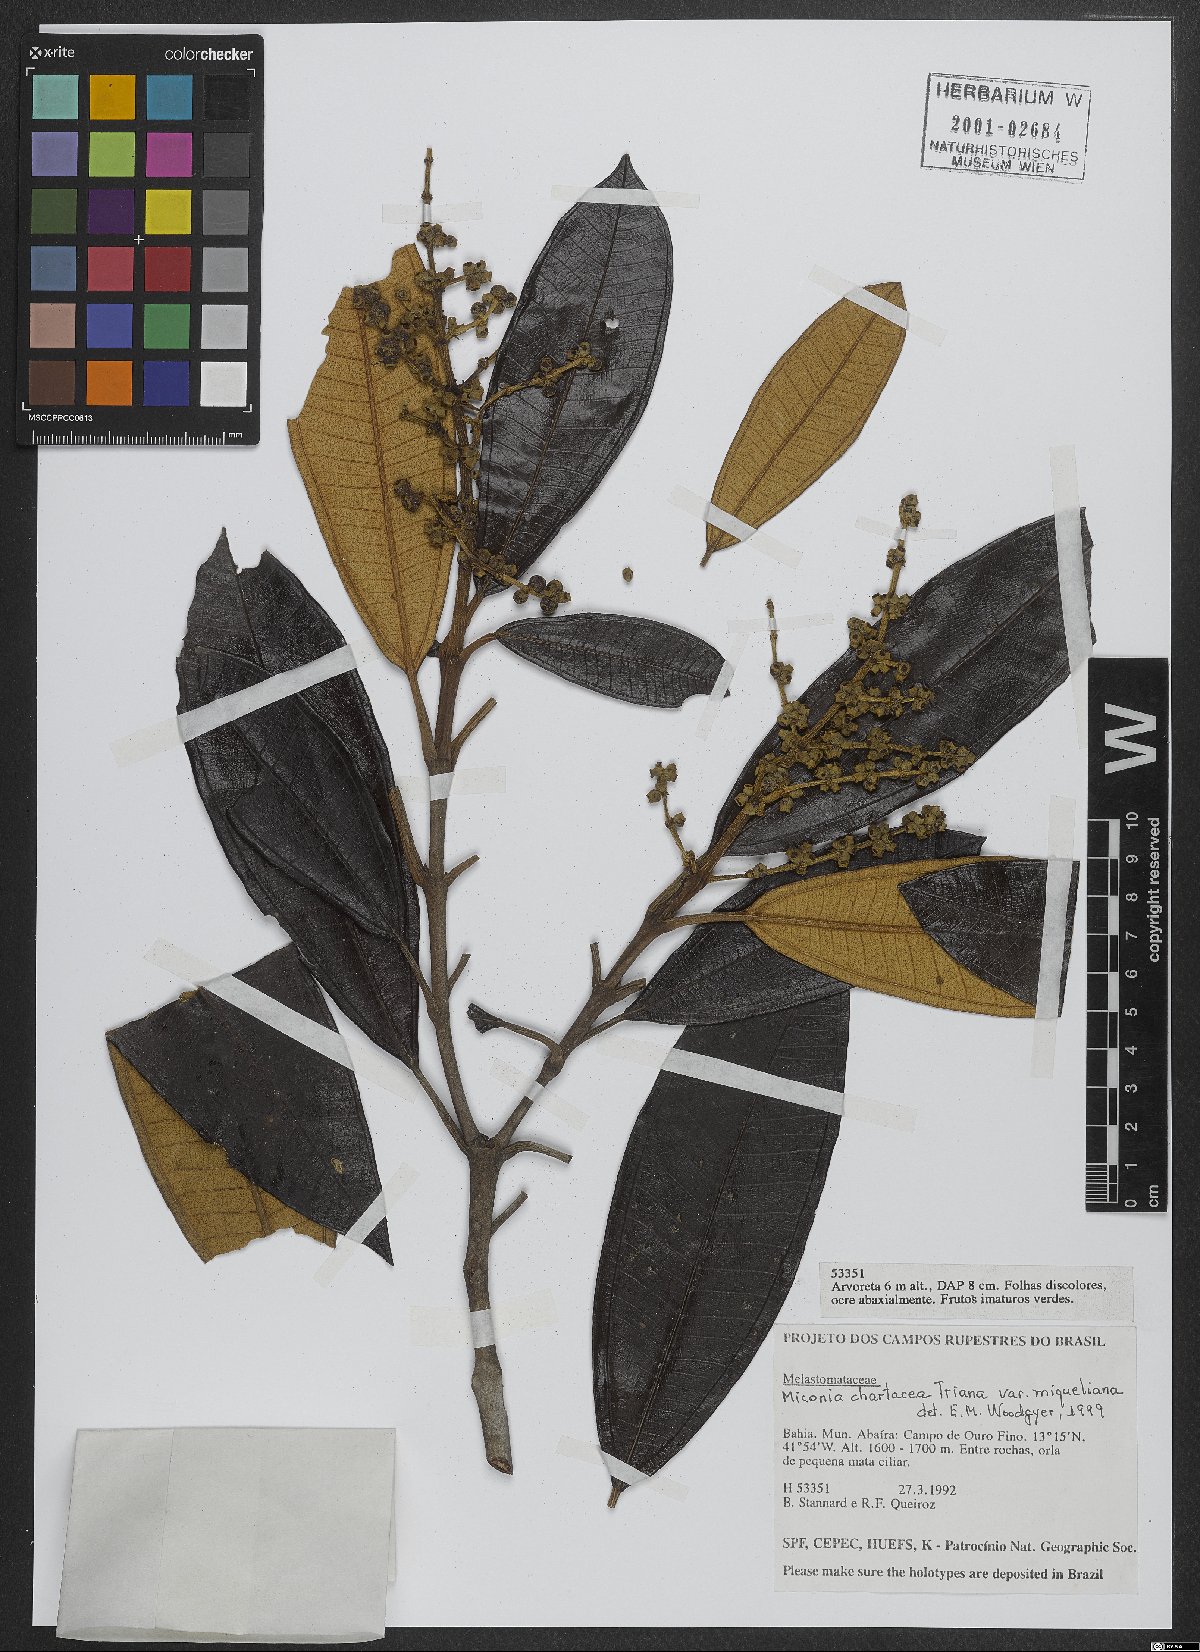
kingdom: Plantae
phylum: Tracheophyta
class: Magnoliopsida
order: Myrtales
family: Melastomataceae
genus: Miconia
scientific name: Miconia chartacea
